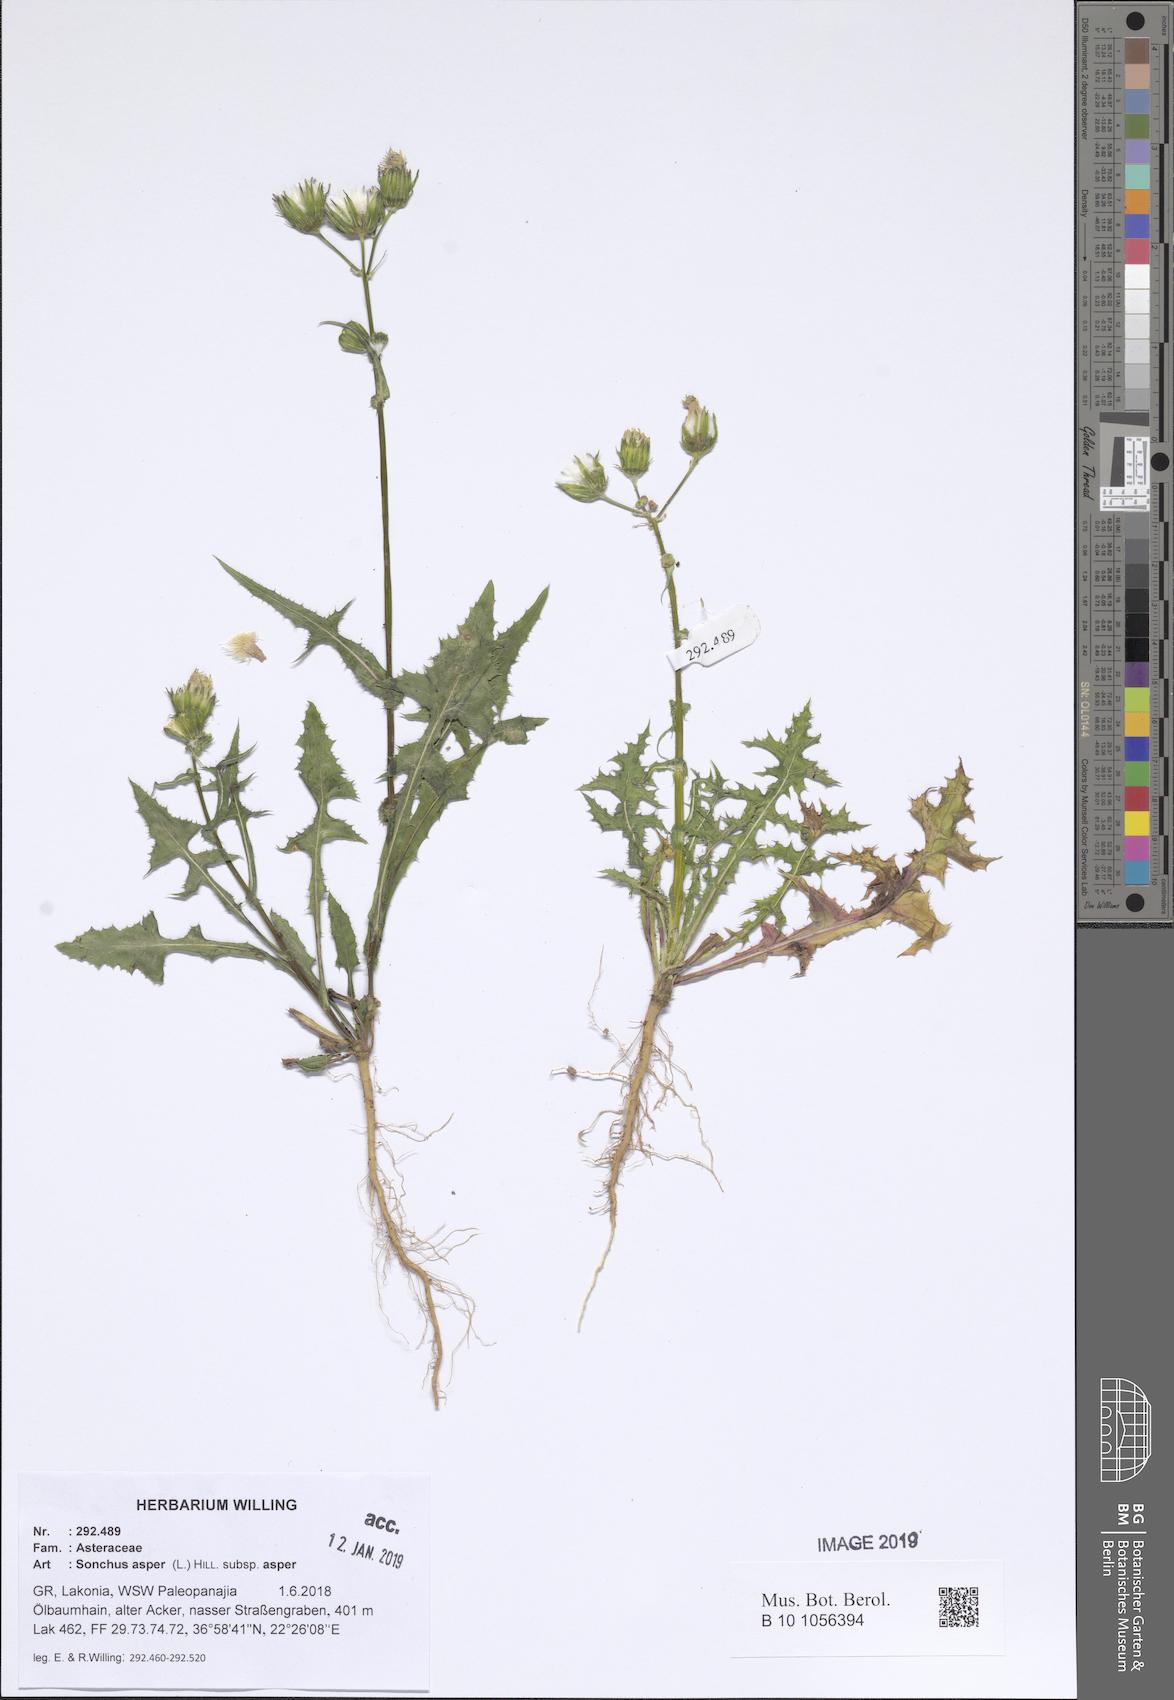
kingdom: Plantae
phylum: Tracheophyta
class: Magnoliopsida
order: Asterales
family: Asteraceae
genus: Sonchus
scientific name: Sonchus asper
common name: Prickly sow-thistle
